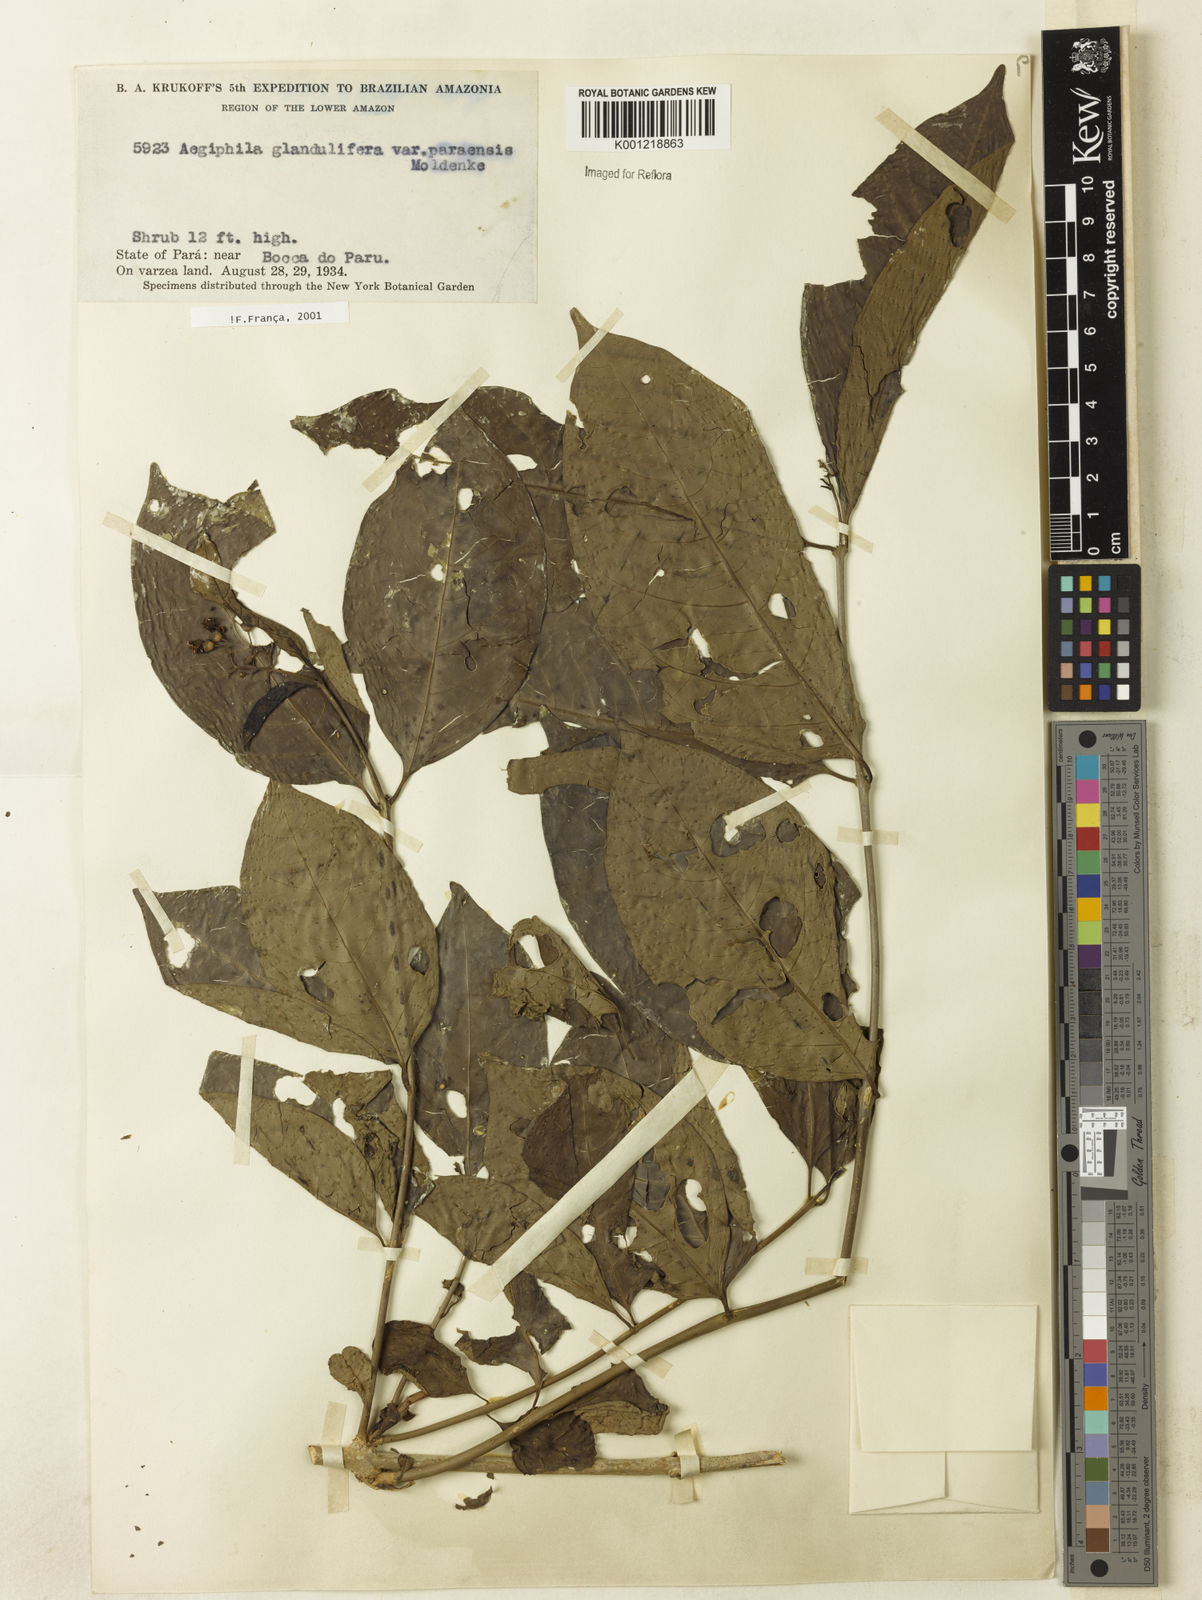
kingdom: Plantae
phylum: Tracheophyta
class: Magnoliopsida
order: Lamiales
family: Lamiaceae
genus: Aegiphila
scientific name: Aegiphila panamensis
